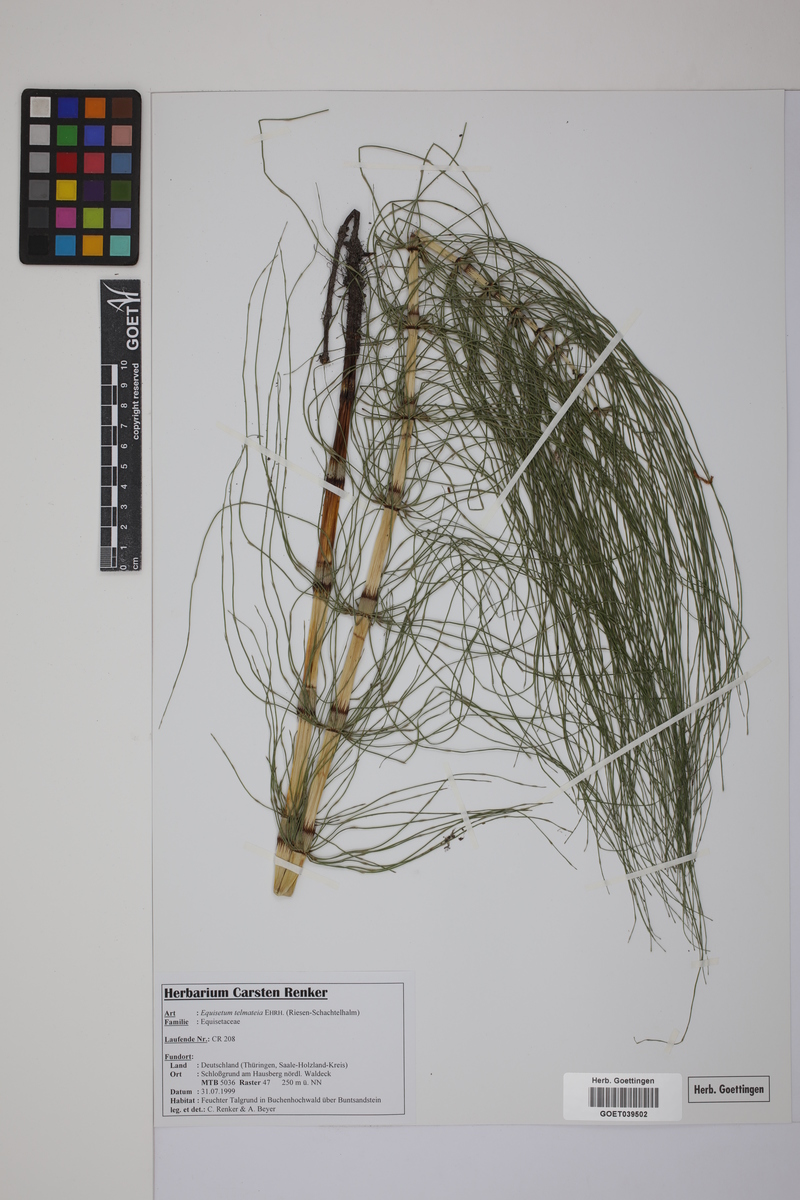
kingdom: Plantae
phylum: Tracheophyta
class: Polypodiopsida
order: Equisetales
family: Equisetaceae
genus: Equisetum
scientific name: Equisetum telmateia
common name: Great horsetail
